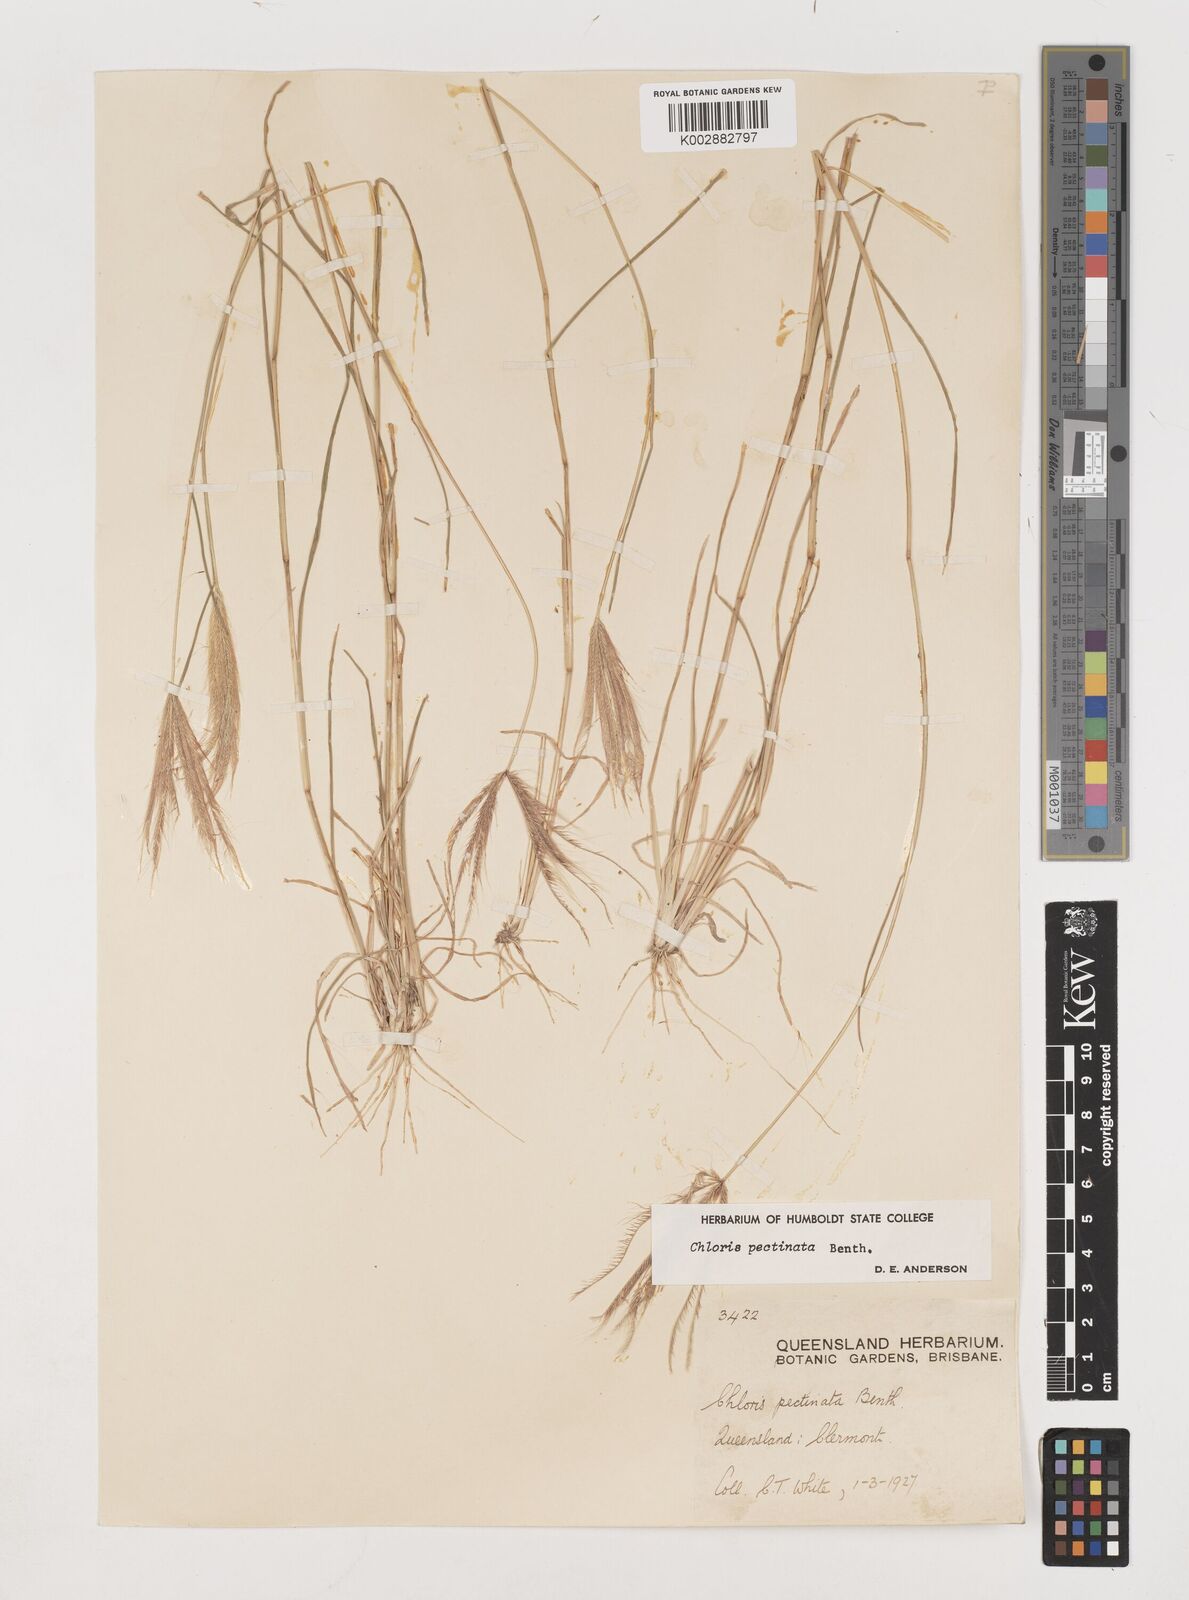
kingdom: Plantae
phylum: Tracheophyta
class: Liliopsida
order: Poales
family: Poaceae
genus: Chloris
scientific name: Chloris pectinata
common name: Comb windmill grass
